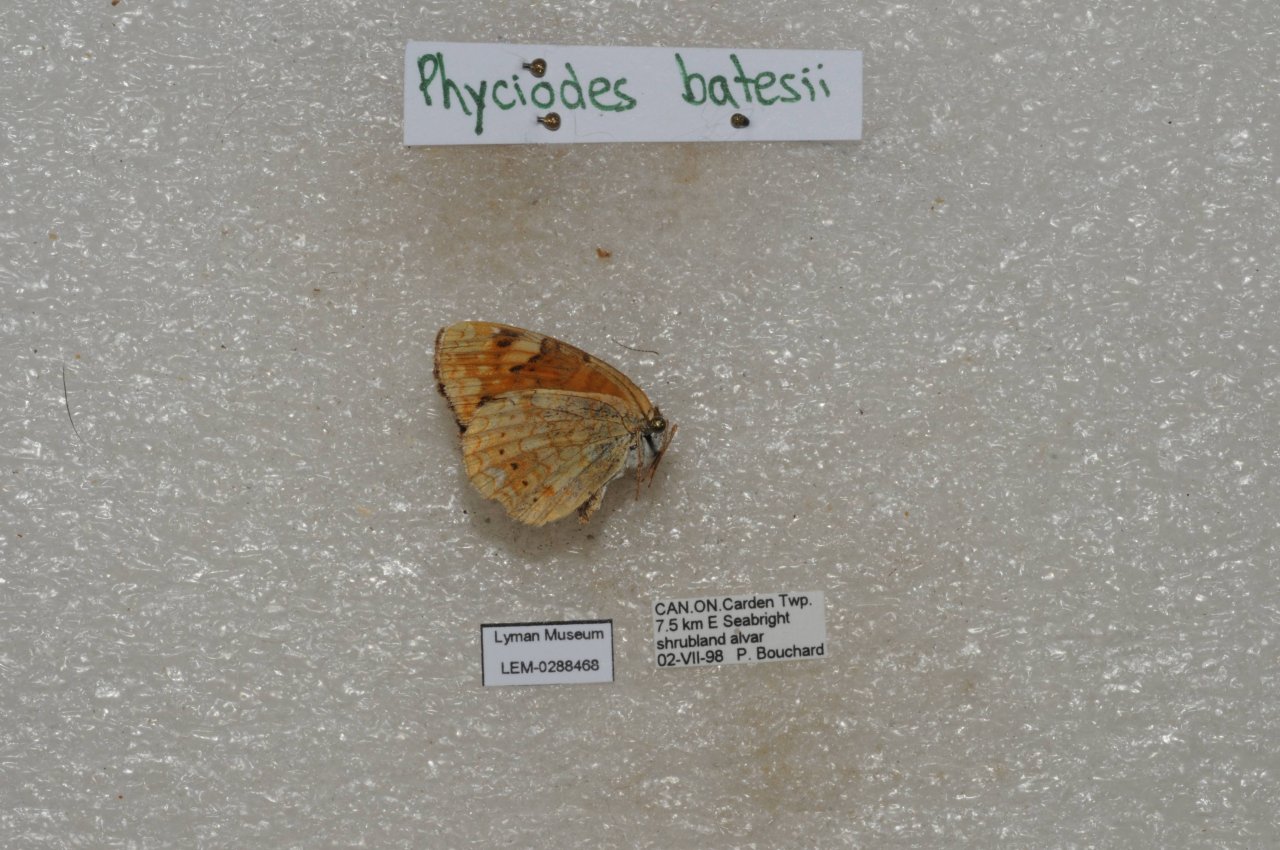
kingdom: Animalia
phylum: Arthropoda
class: Insecta
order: Lepidoptera
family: Nymphalidae
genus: Phyciodes
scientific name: Phyciodes batesii
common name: Tawny Crescent
